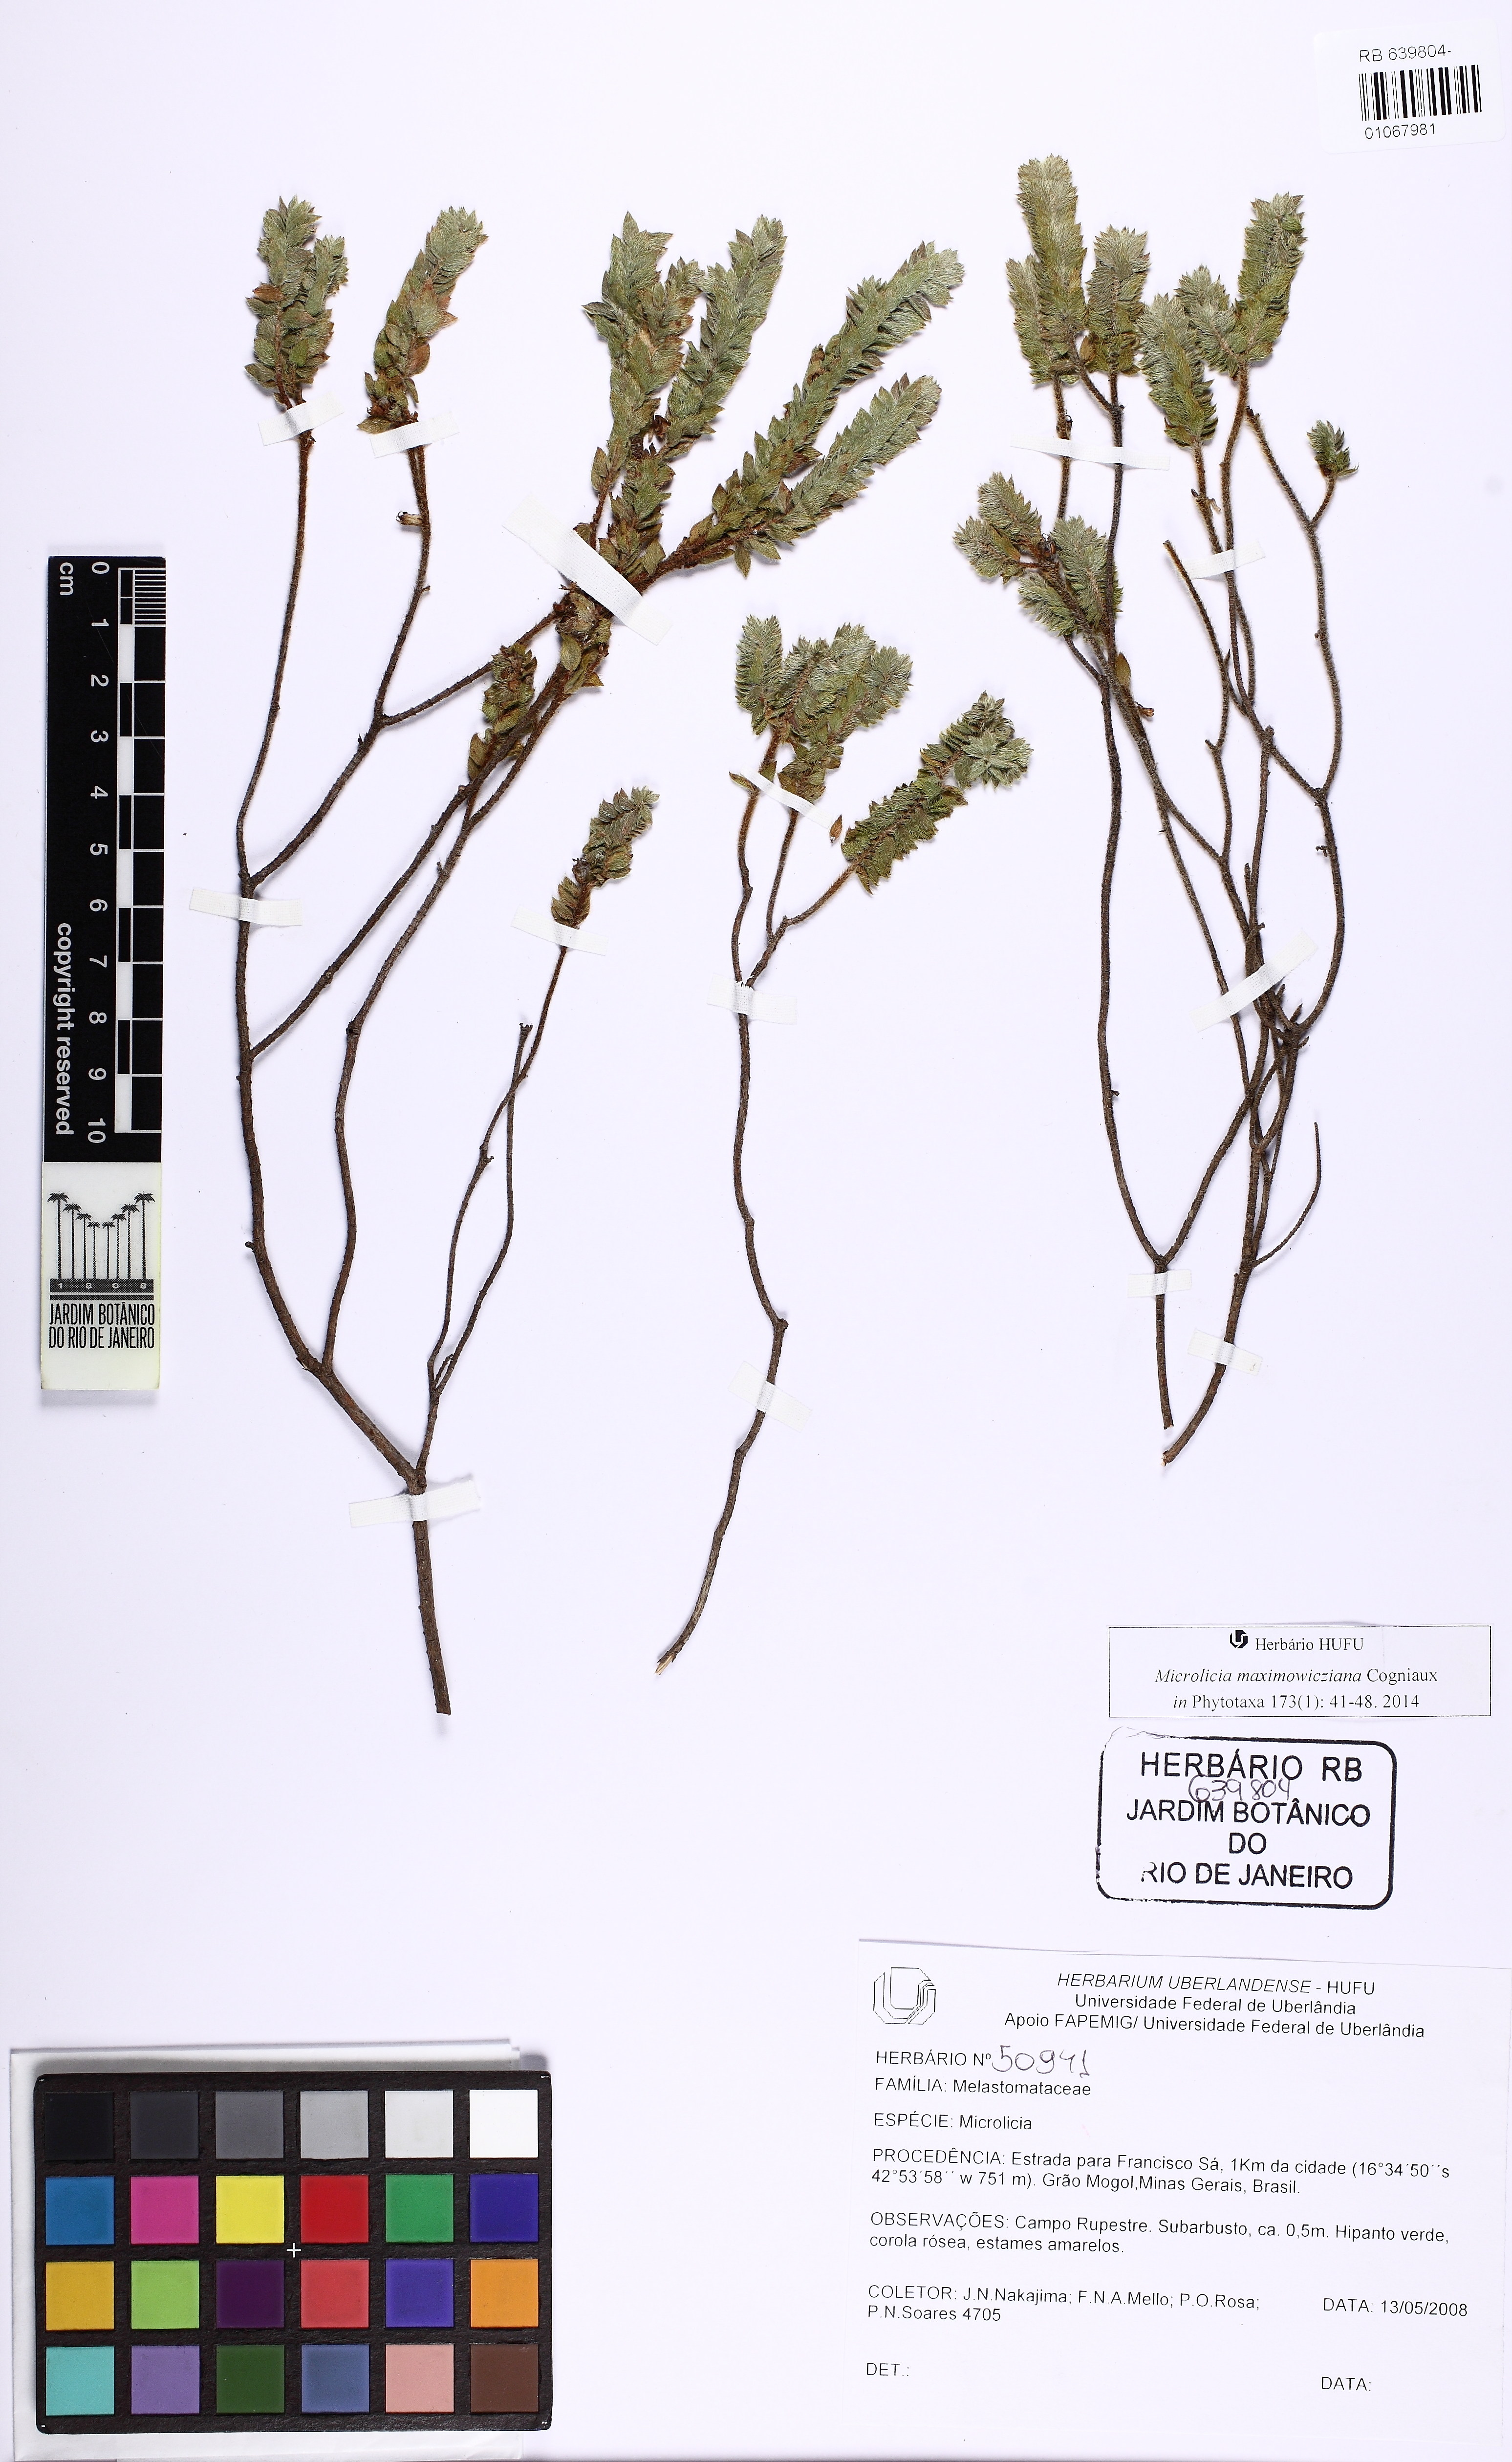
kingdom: Plantae
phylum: Tracheophyta
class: Magnoliopsida
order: Myrtales
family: Melastomataceae
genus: Microlicia
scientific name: Microlicia maximowicziana
